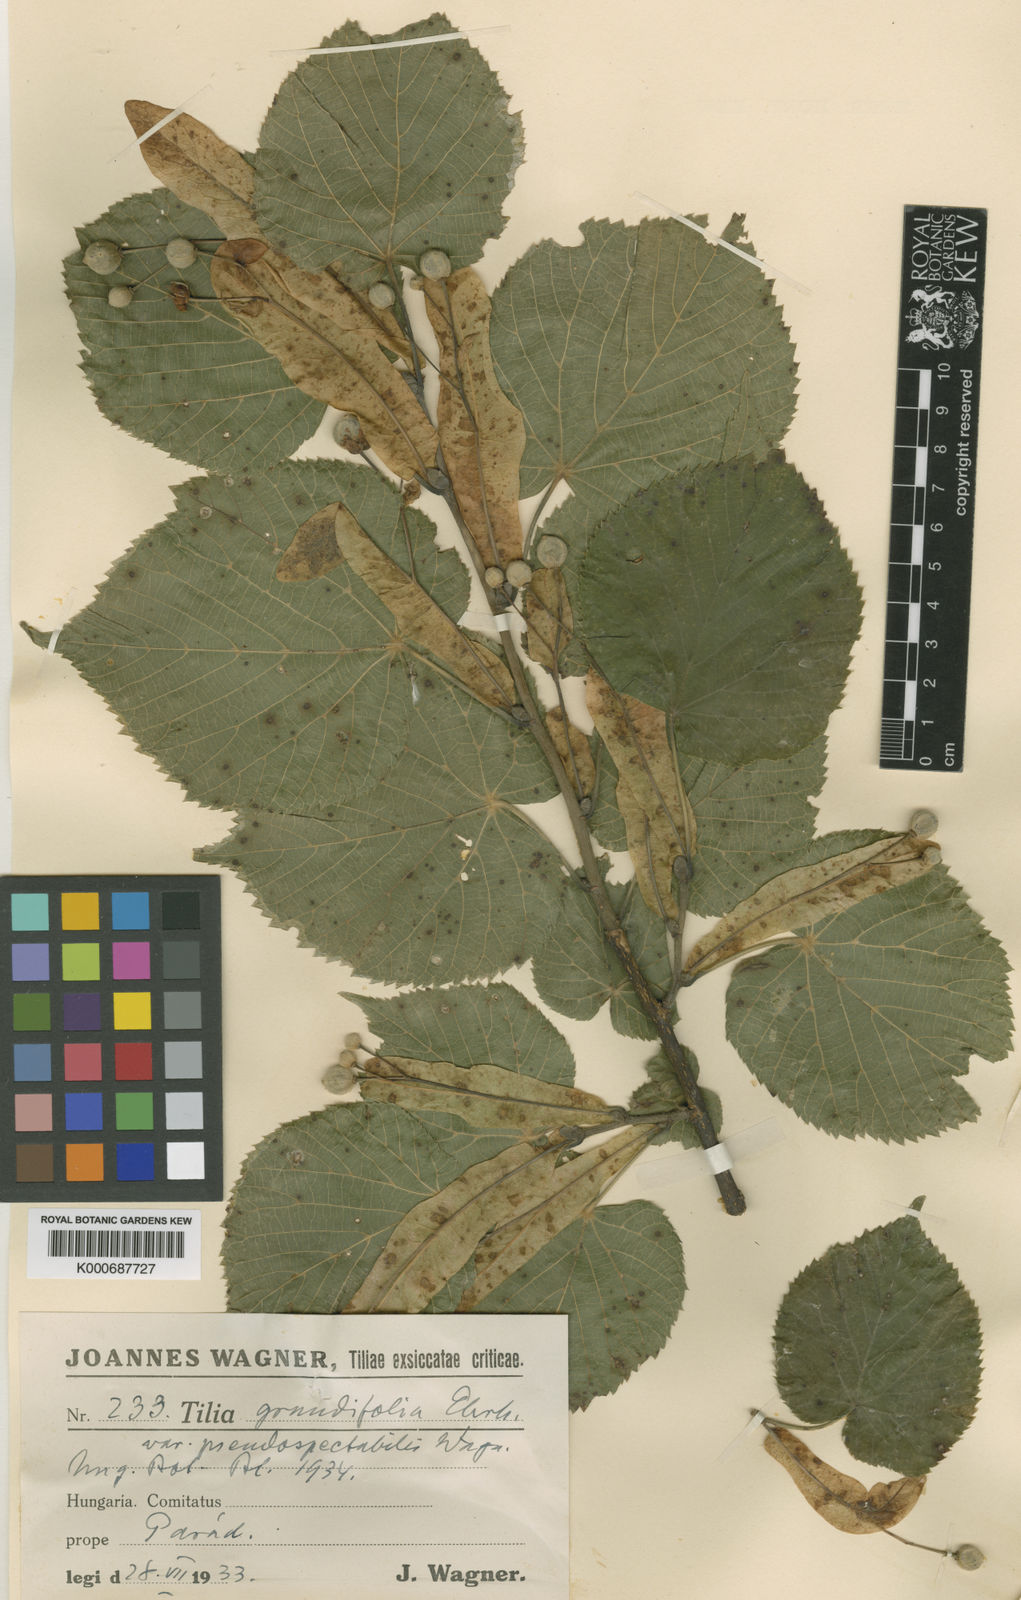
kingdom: Plantae
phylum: Tracheophyta
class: Magnoliopsida
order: Malvales
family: Malvaceae
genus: Tilia
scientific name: Tilia platyphyllos
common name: Large-leaved lime
